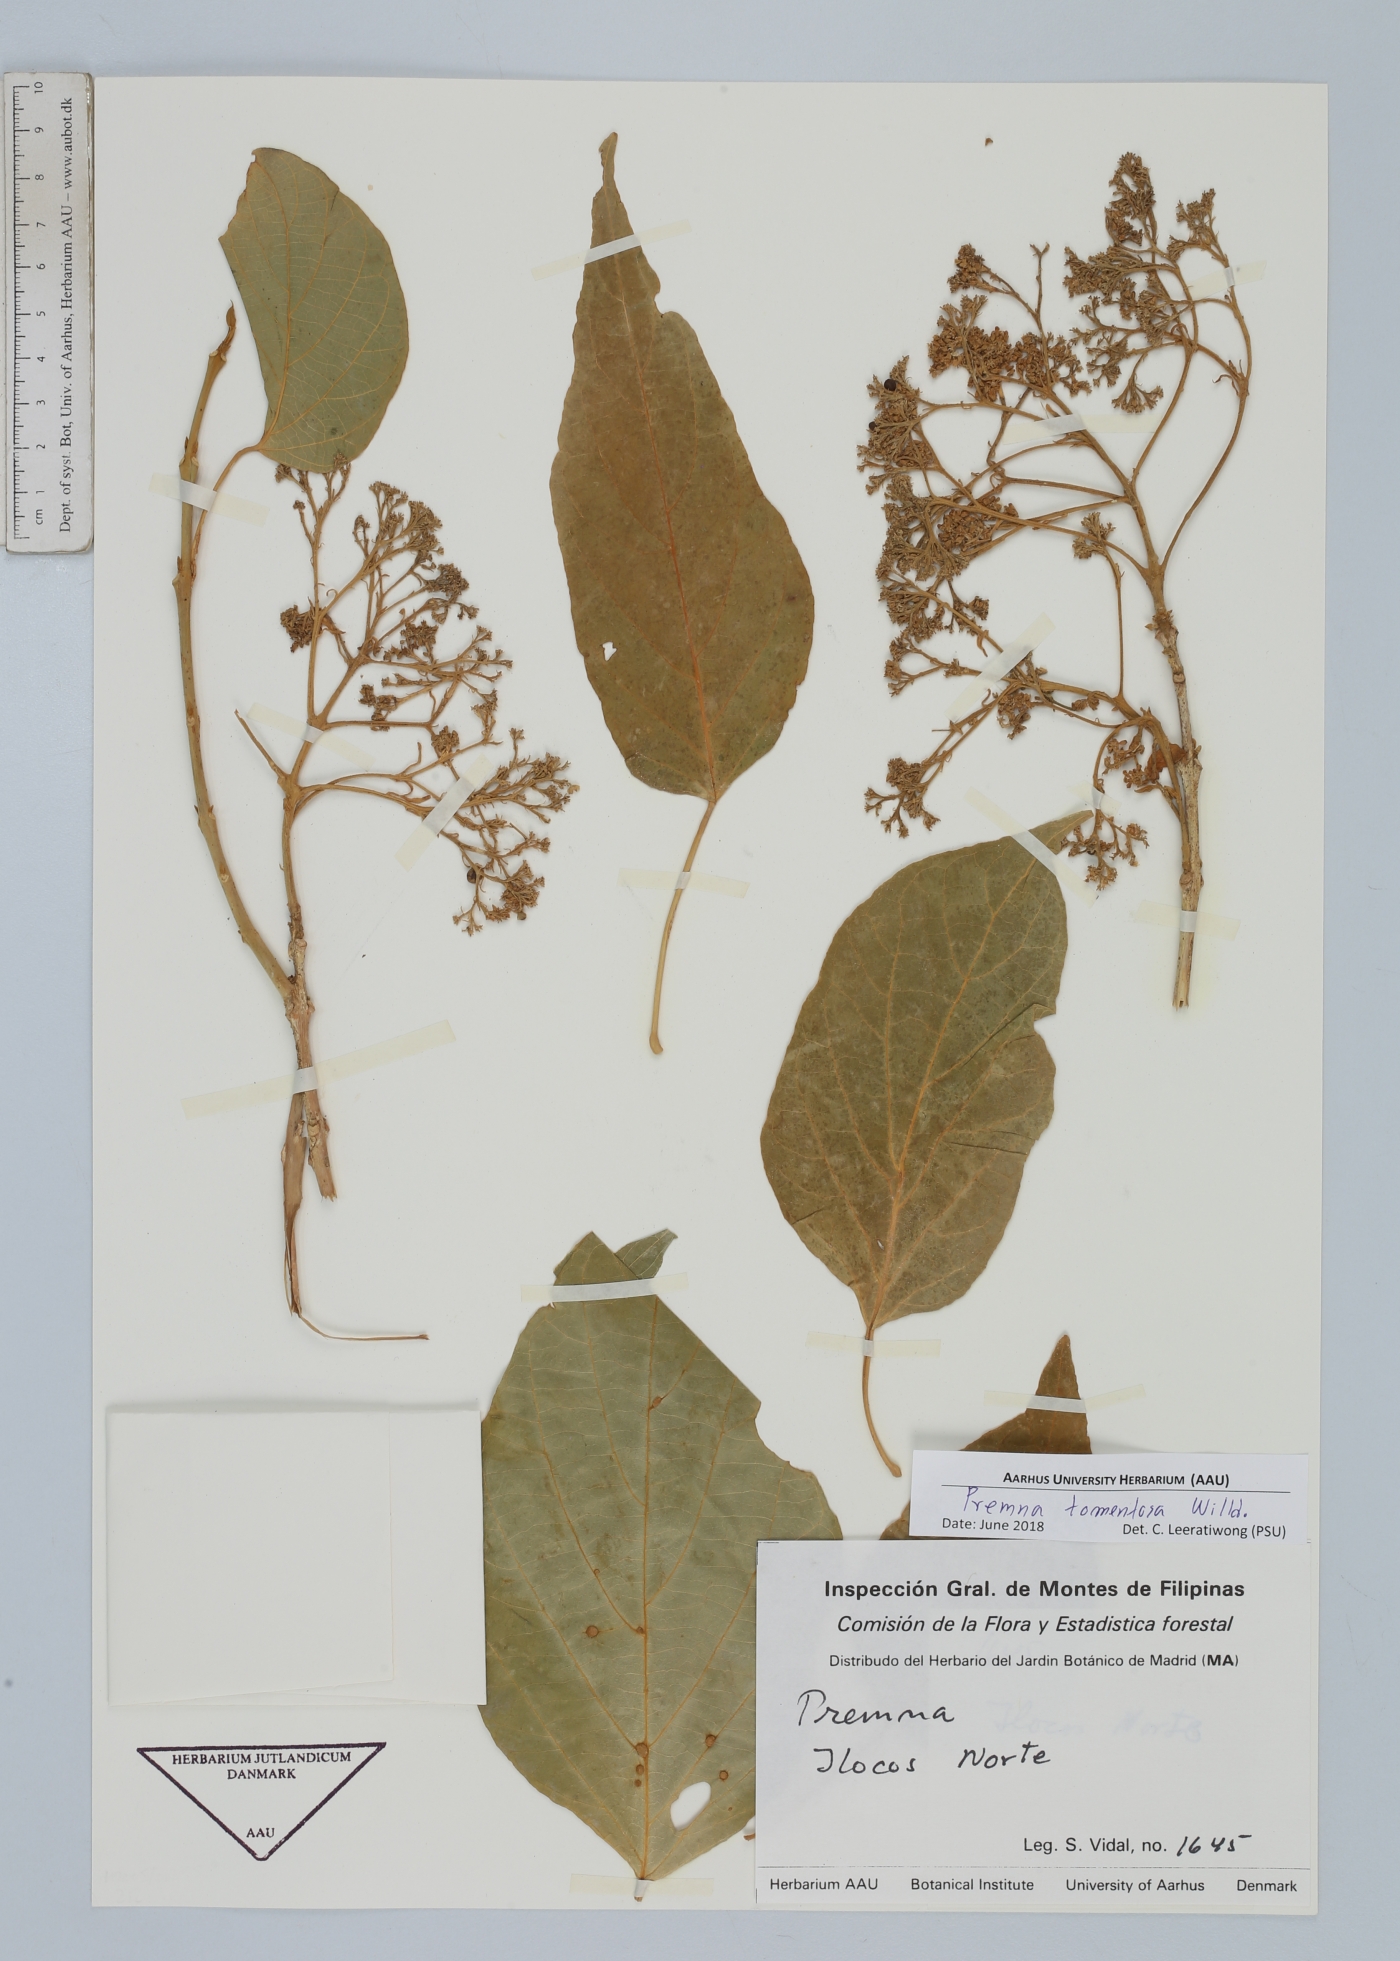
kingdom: Plantae
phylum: Tracheophyta
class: Magnoliopsida
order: Lamiales
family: Lamiaceae
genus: Premna
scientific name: Premna tomentosa
